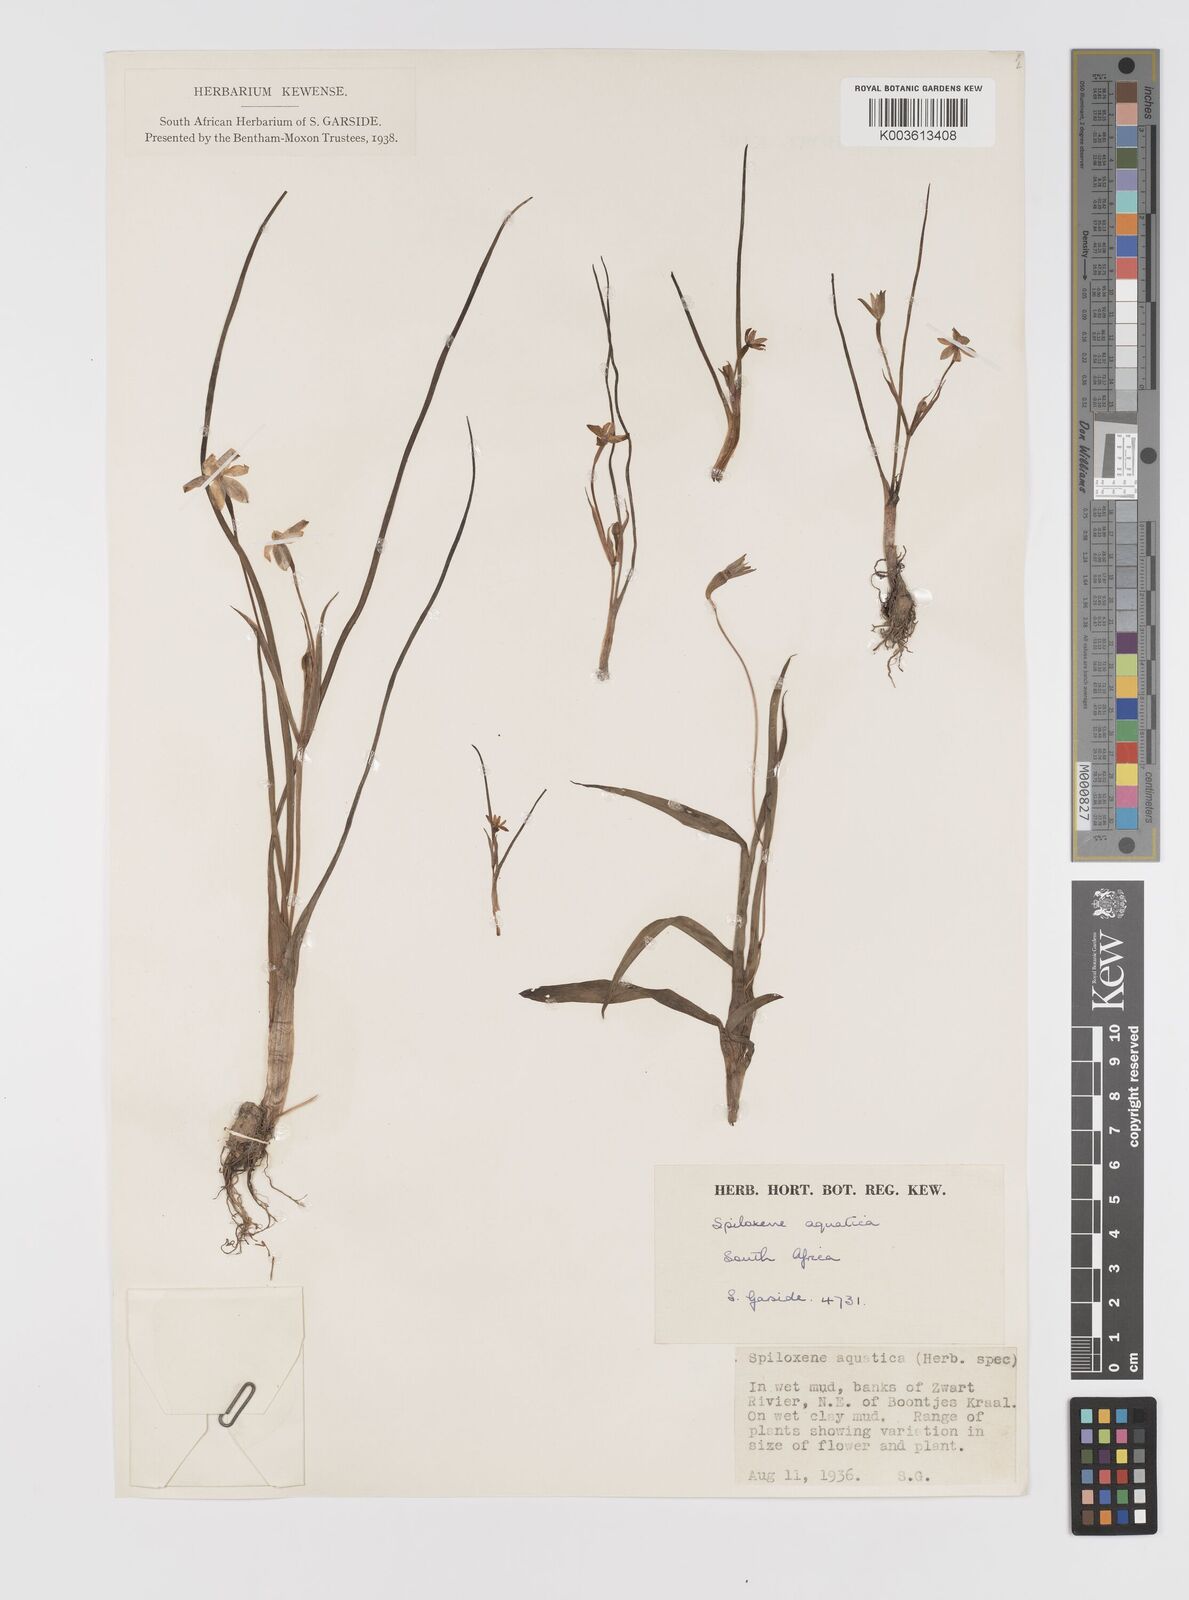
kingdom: Plantae
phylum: Tracheophyta
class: Liliopsida
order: Asparagales
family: Hypoxidaceae
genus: Pauridia
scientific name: Pauridia aquatica
